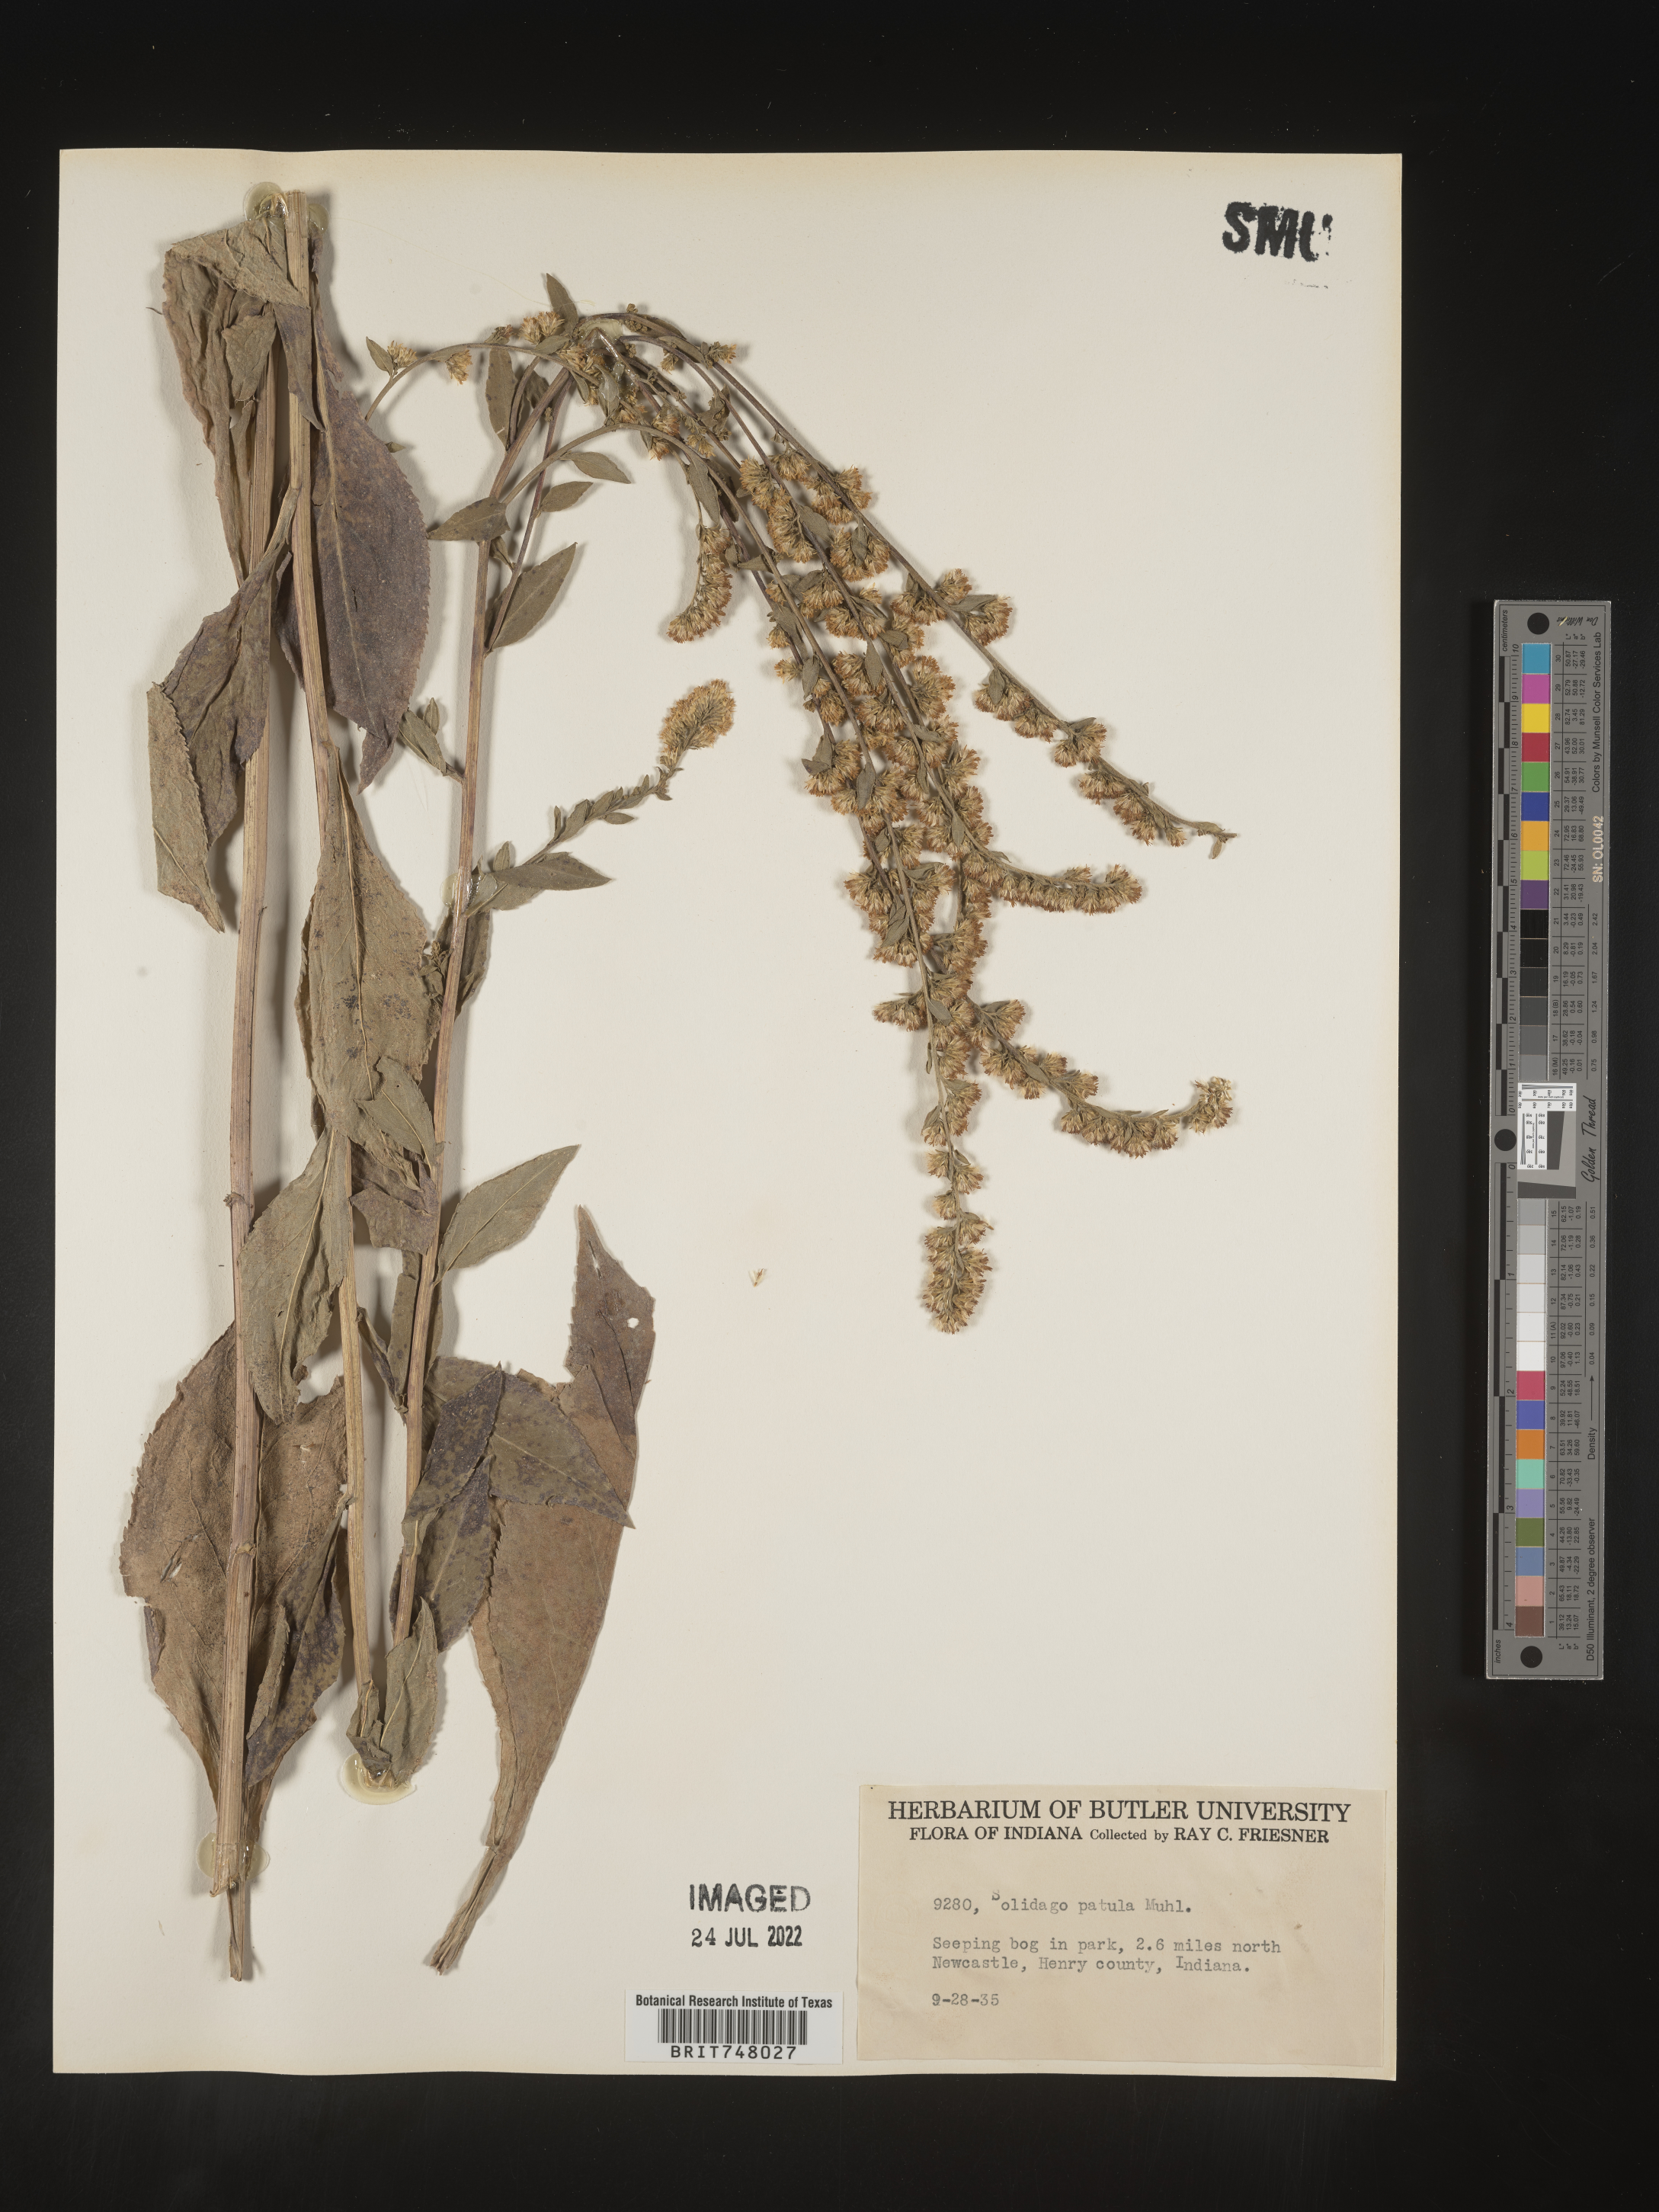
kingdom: Plantae
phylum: Tracheophyta
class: Magnoliopsida
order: Asterales
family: Asteraceae
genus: Solidago
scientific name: Solidago patula
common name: Rough-leaf goldenrod
